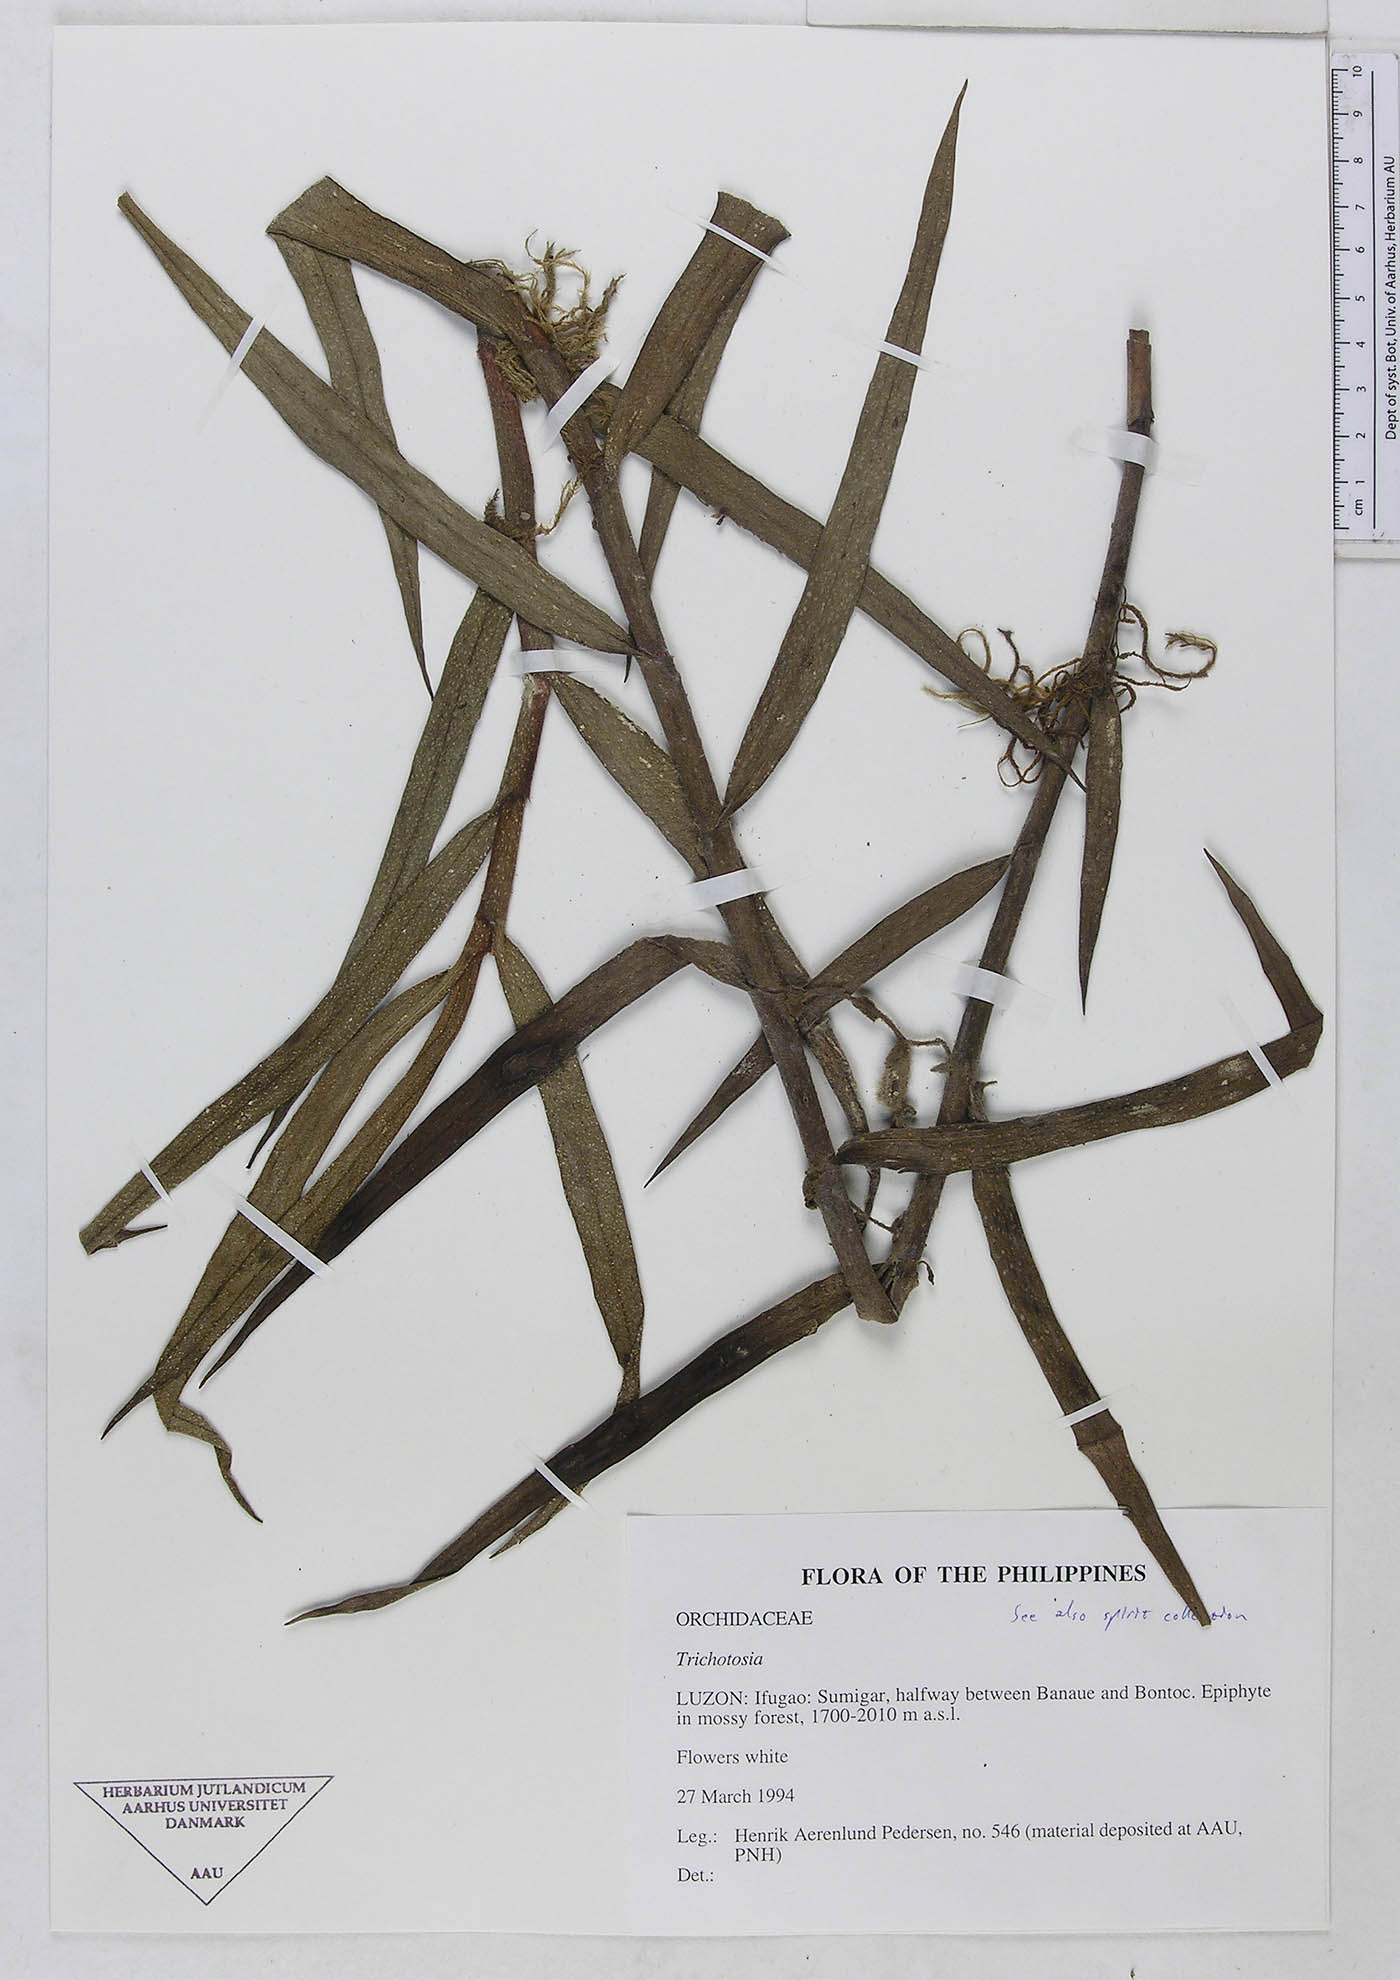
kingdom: Plantae
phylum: Tracheophyta
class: Liliopsida
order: Asparagales
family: Orchidaceae
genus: Trichotosia
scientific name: Trichotosia
